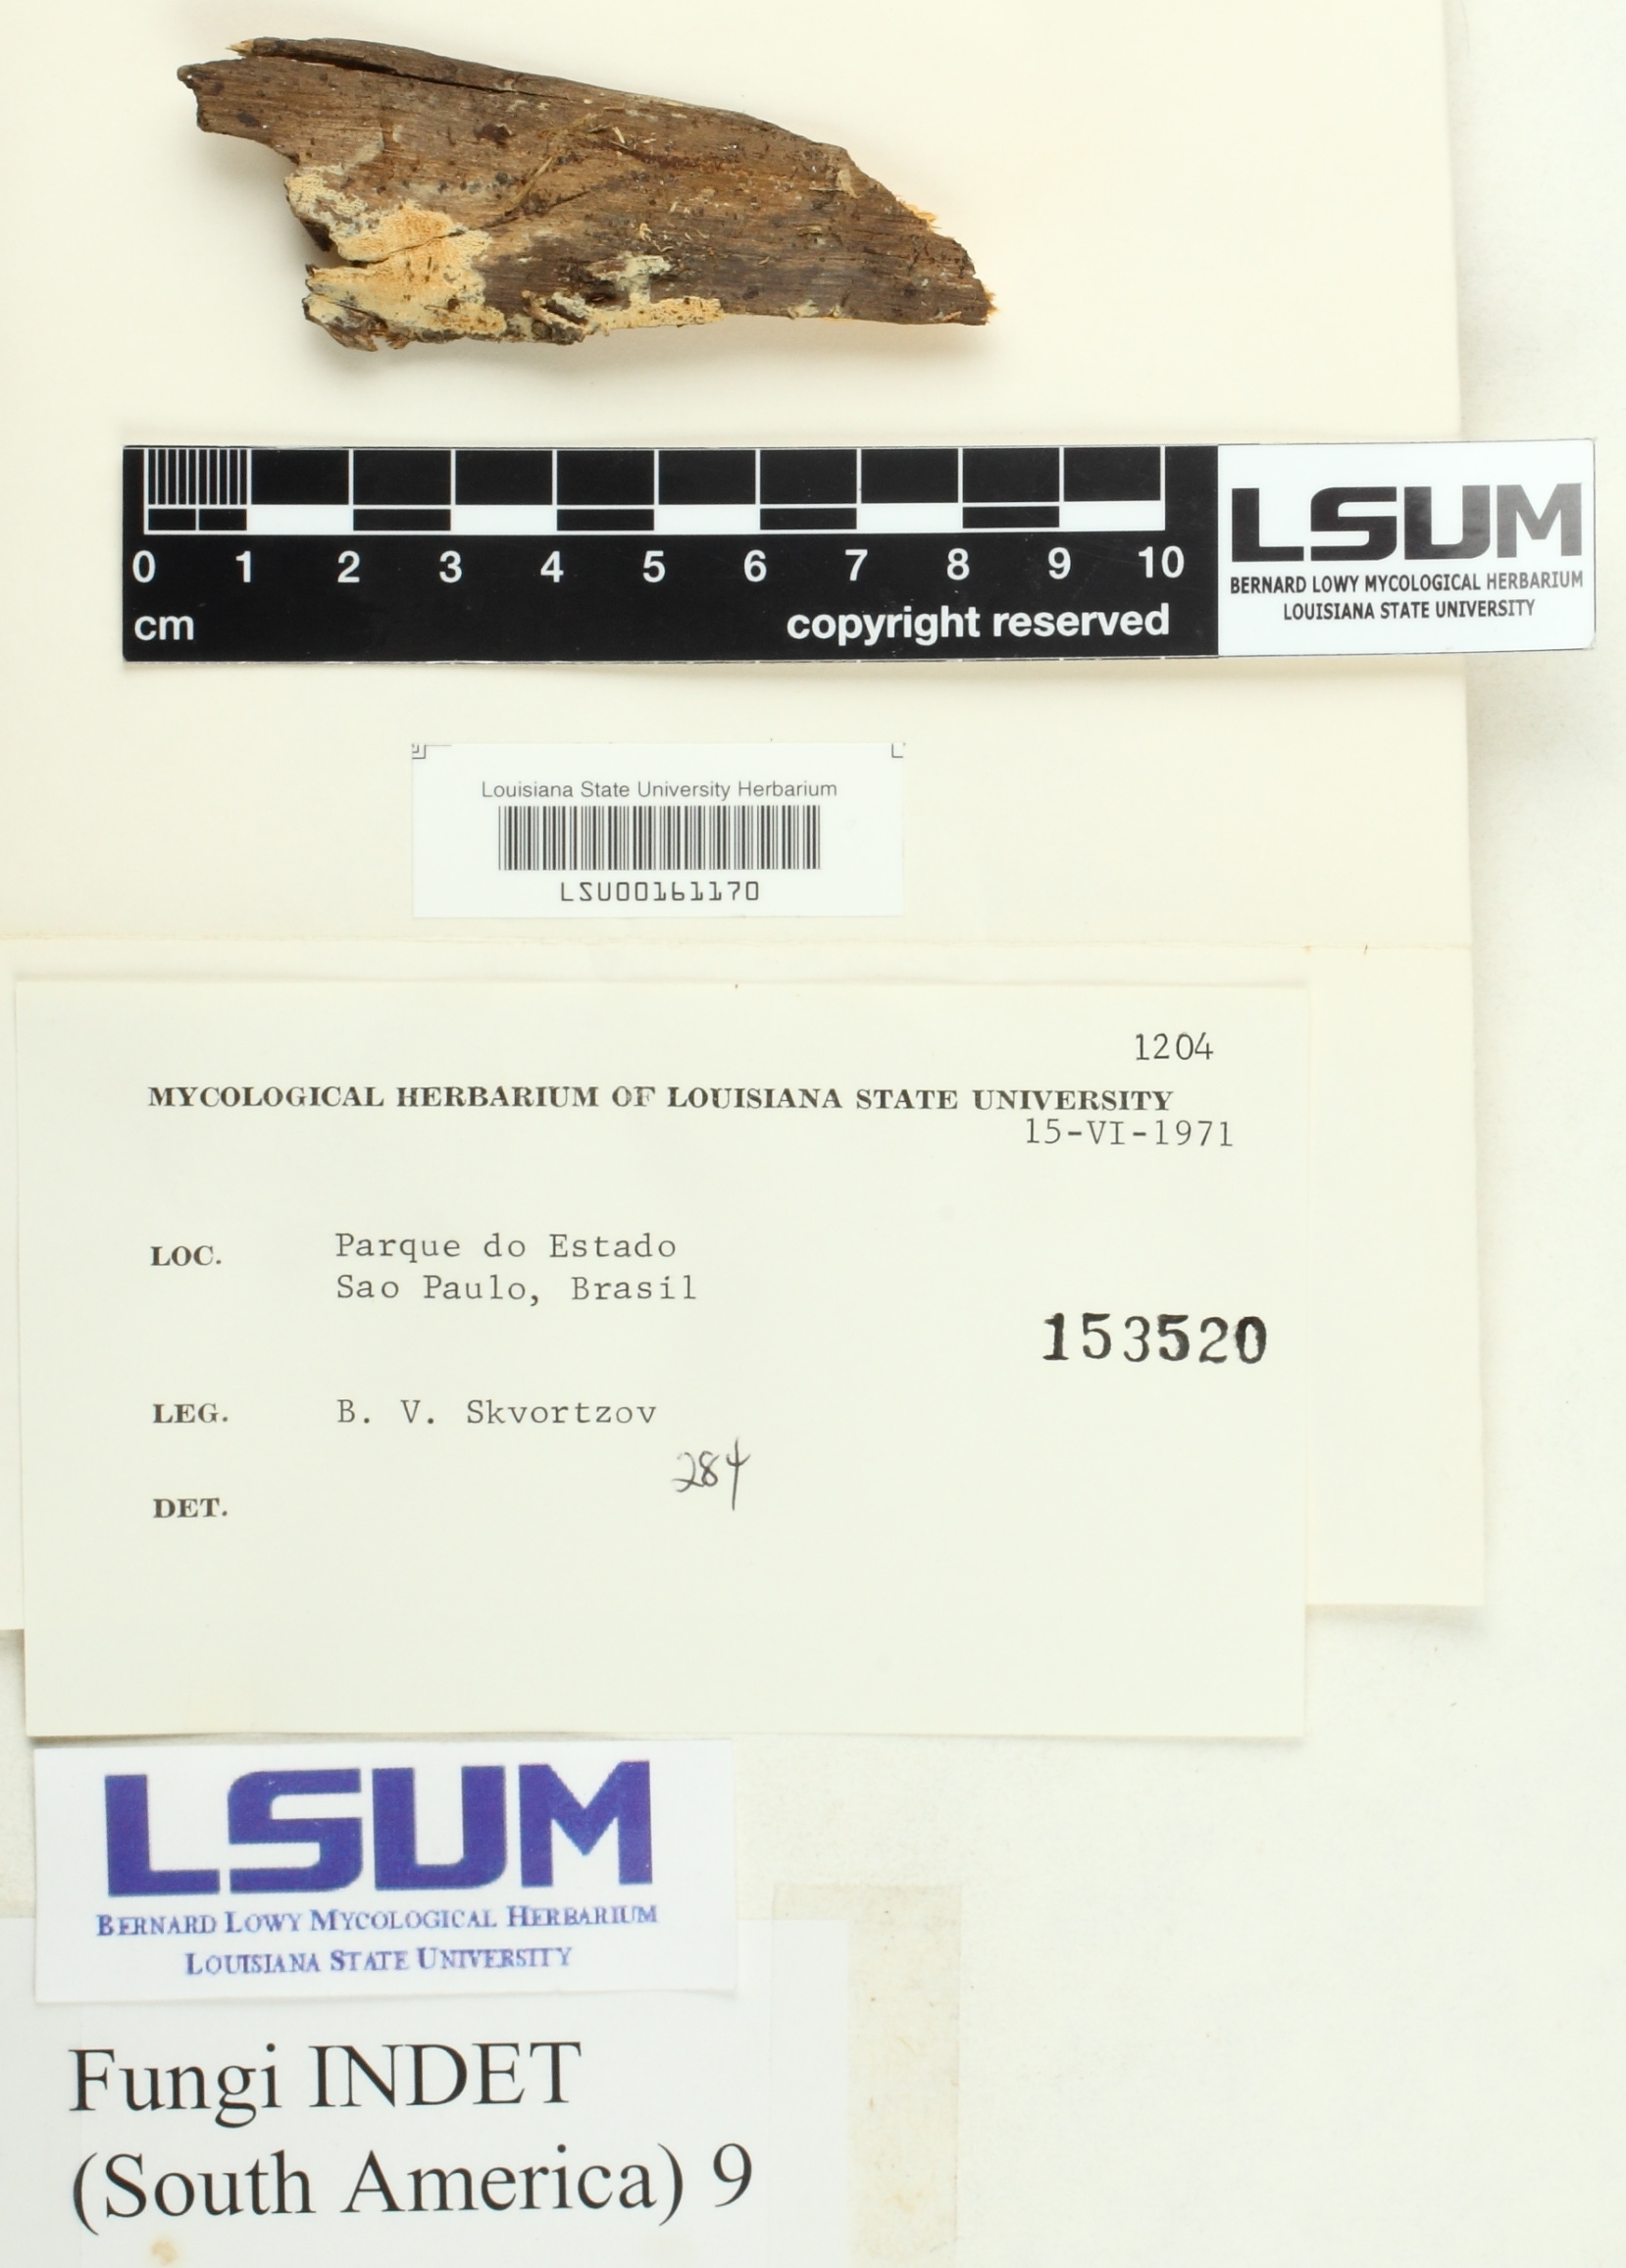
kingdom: Fungi
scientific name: Fungi
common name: Fungi
